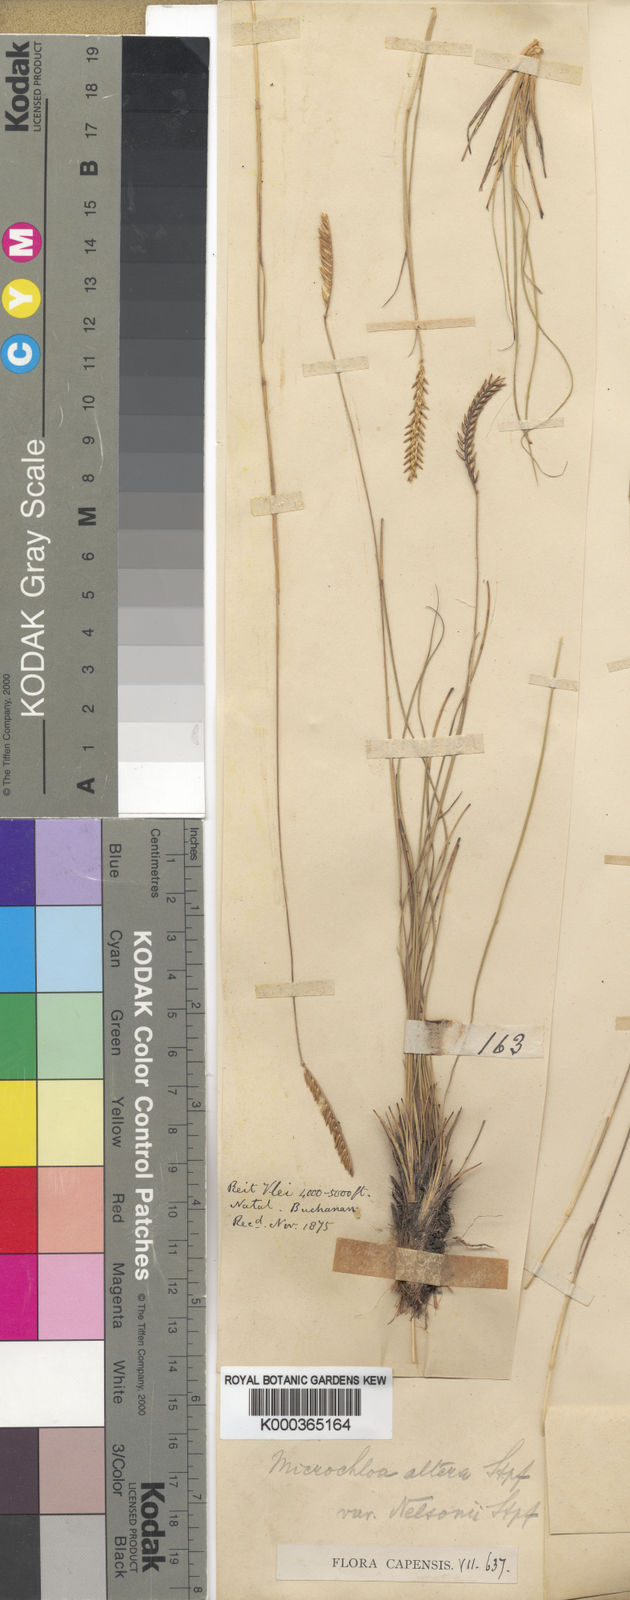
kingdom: Plantae
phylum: Tracheophyta
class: Liliopsida
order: Poales
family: Poaceae
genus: Microchloa
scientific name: Microchloa altera
